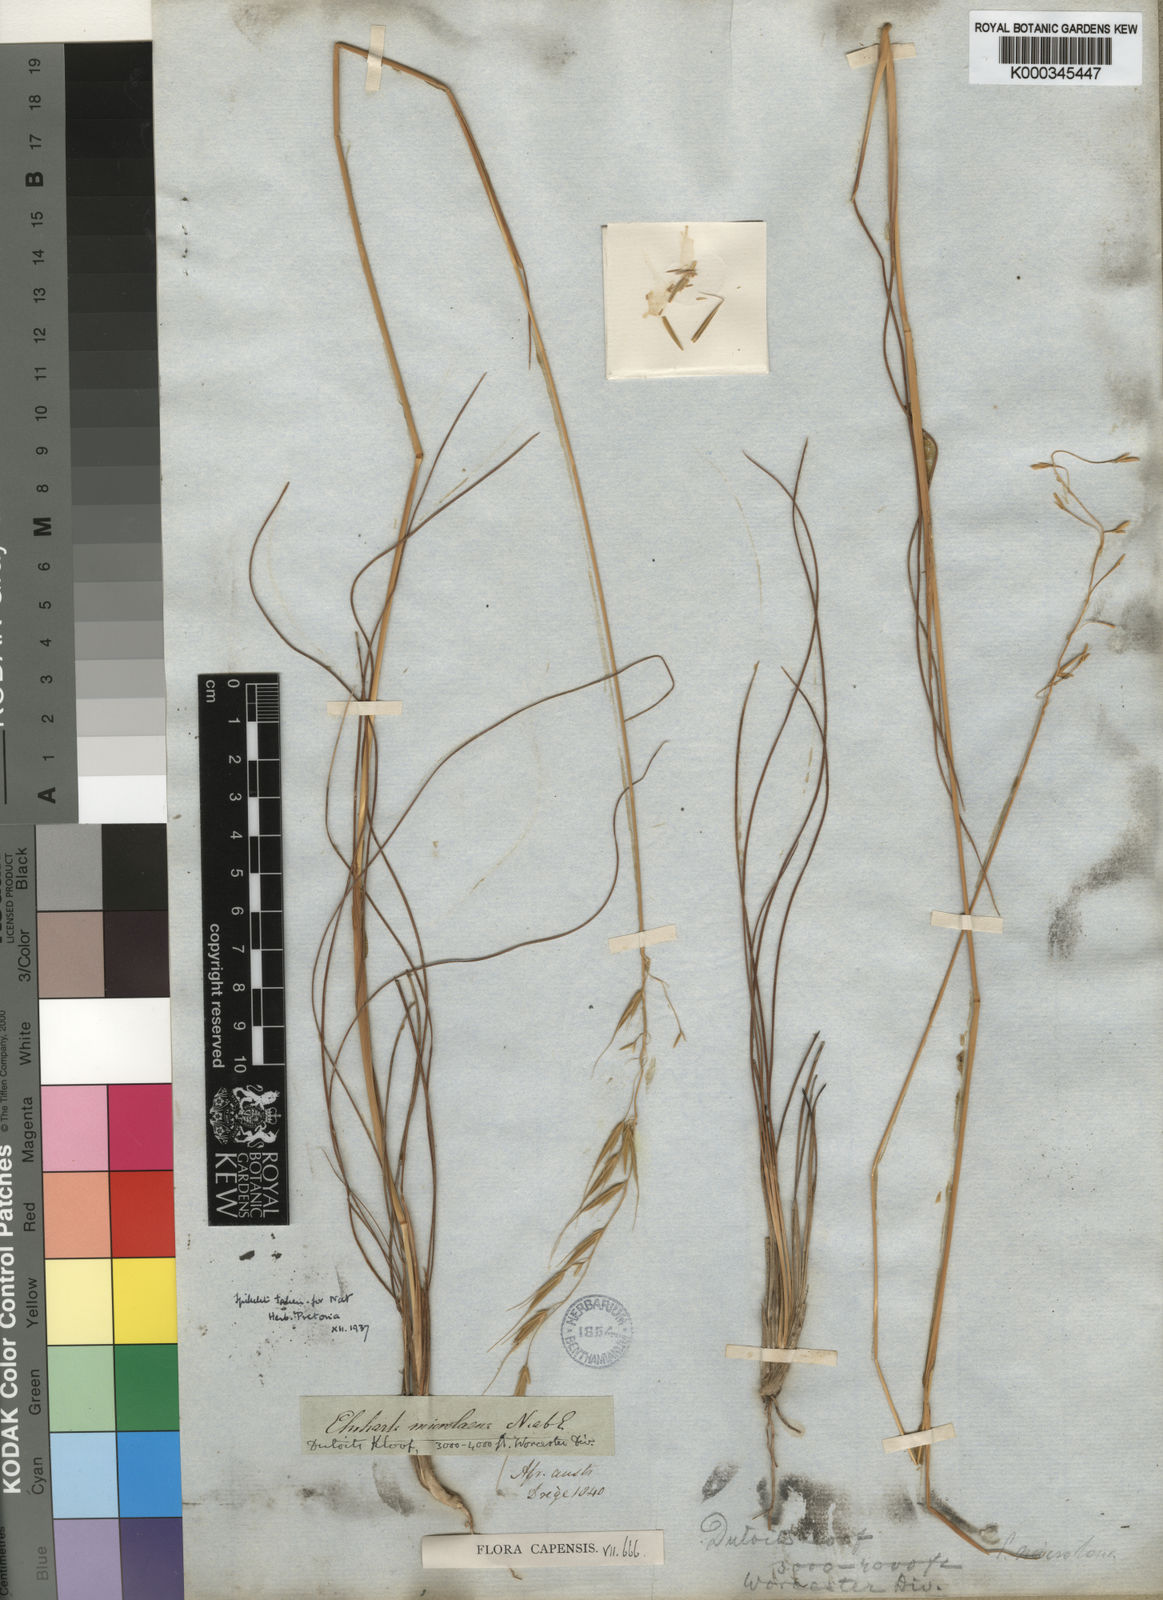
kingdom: Plantae
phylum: Tracheophyta
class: Liliopsida
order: Poales
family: Poaceae
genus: Ehrharta
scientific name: Ehrharta
